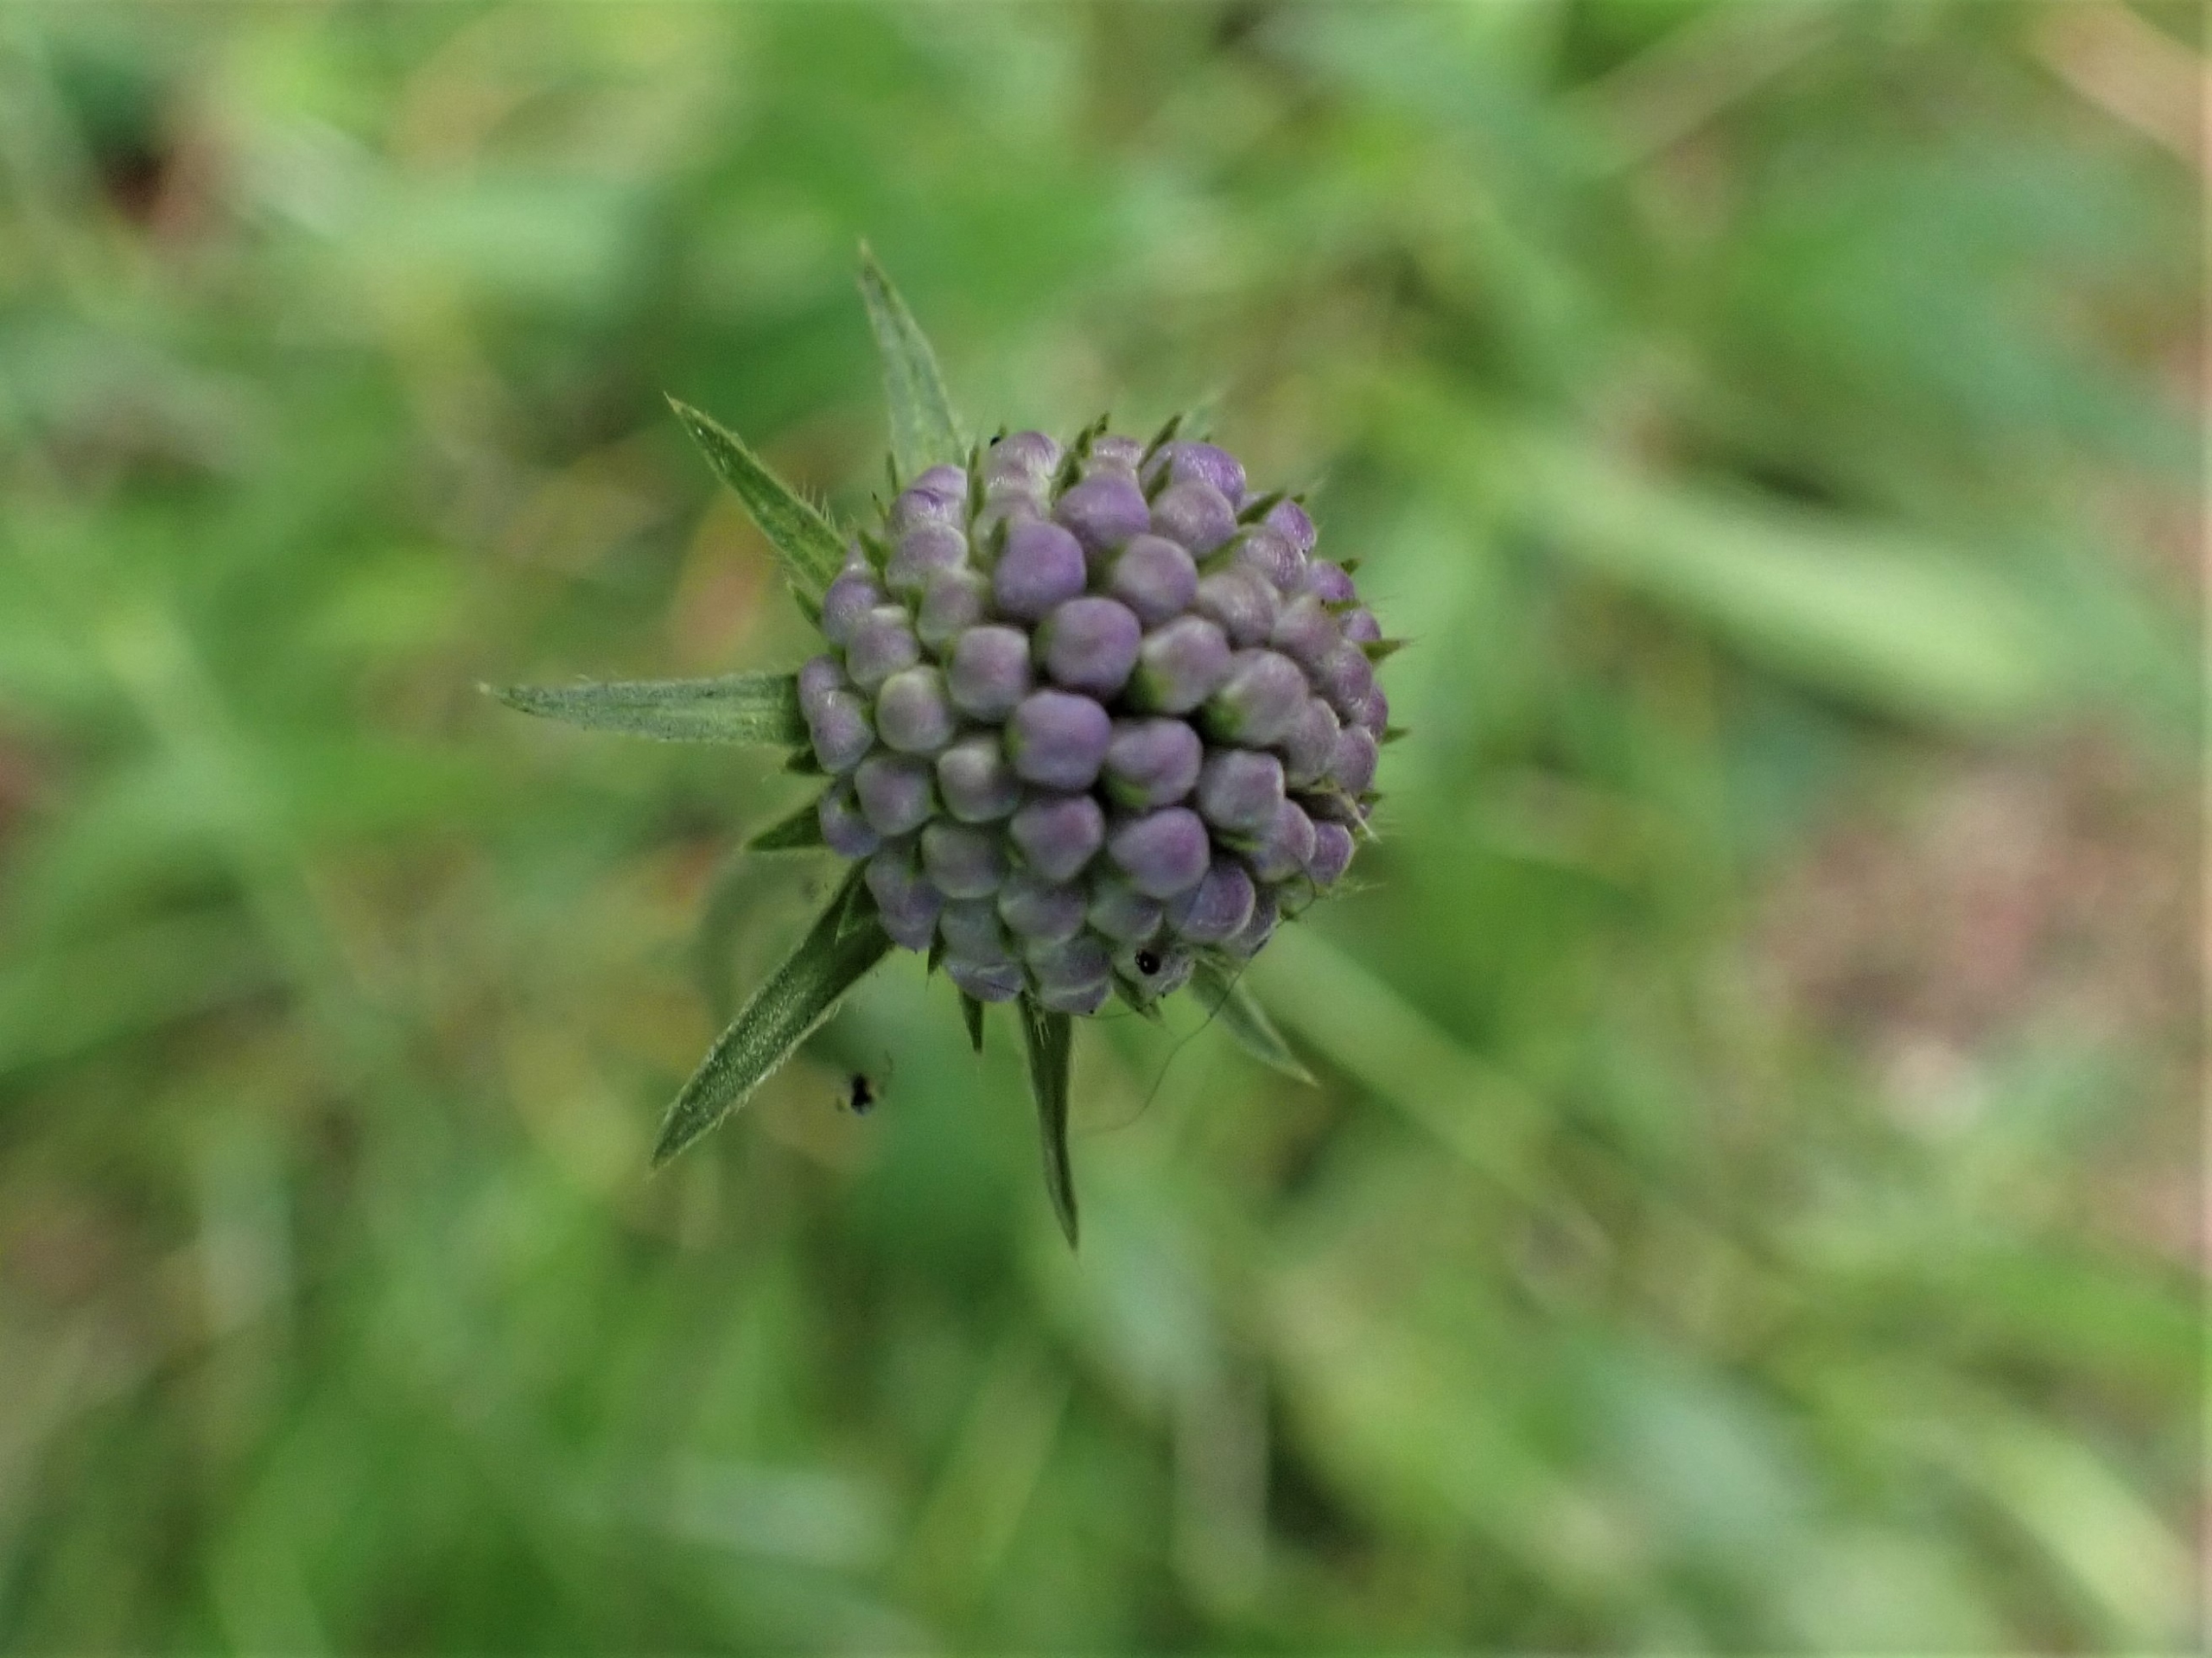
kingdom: Plantae
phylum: Tracheophyta
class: Magnoliopsida
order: Dipsacales
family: Caprifoliaceae
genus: Succisa
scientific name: Succisa pratensis
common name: Djævelsbid
